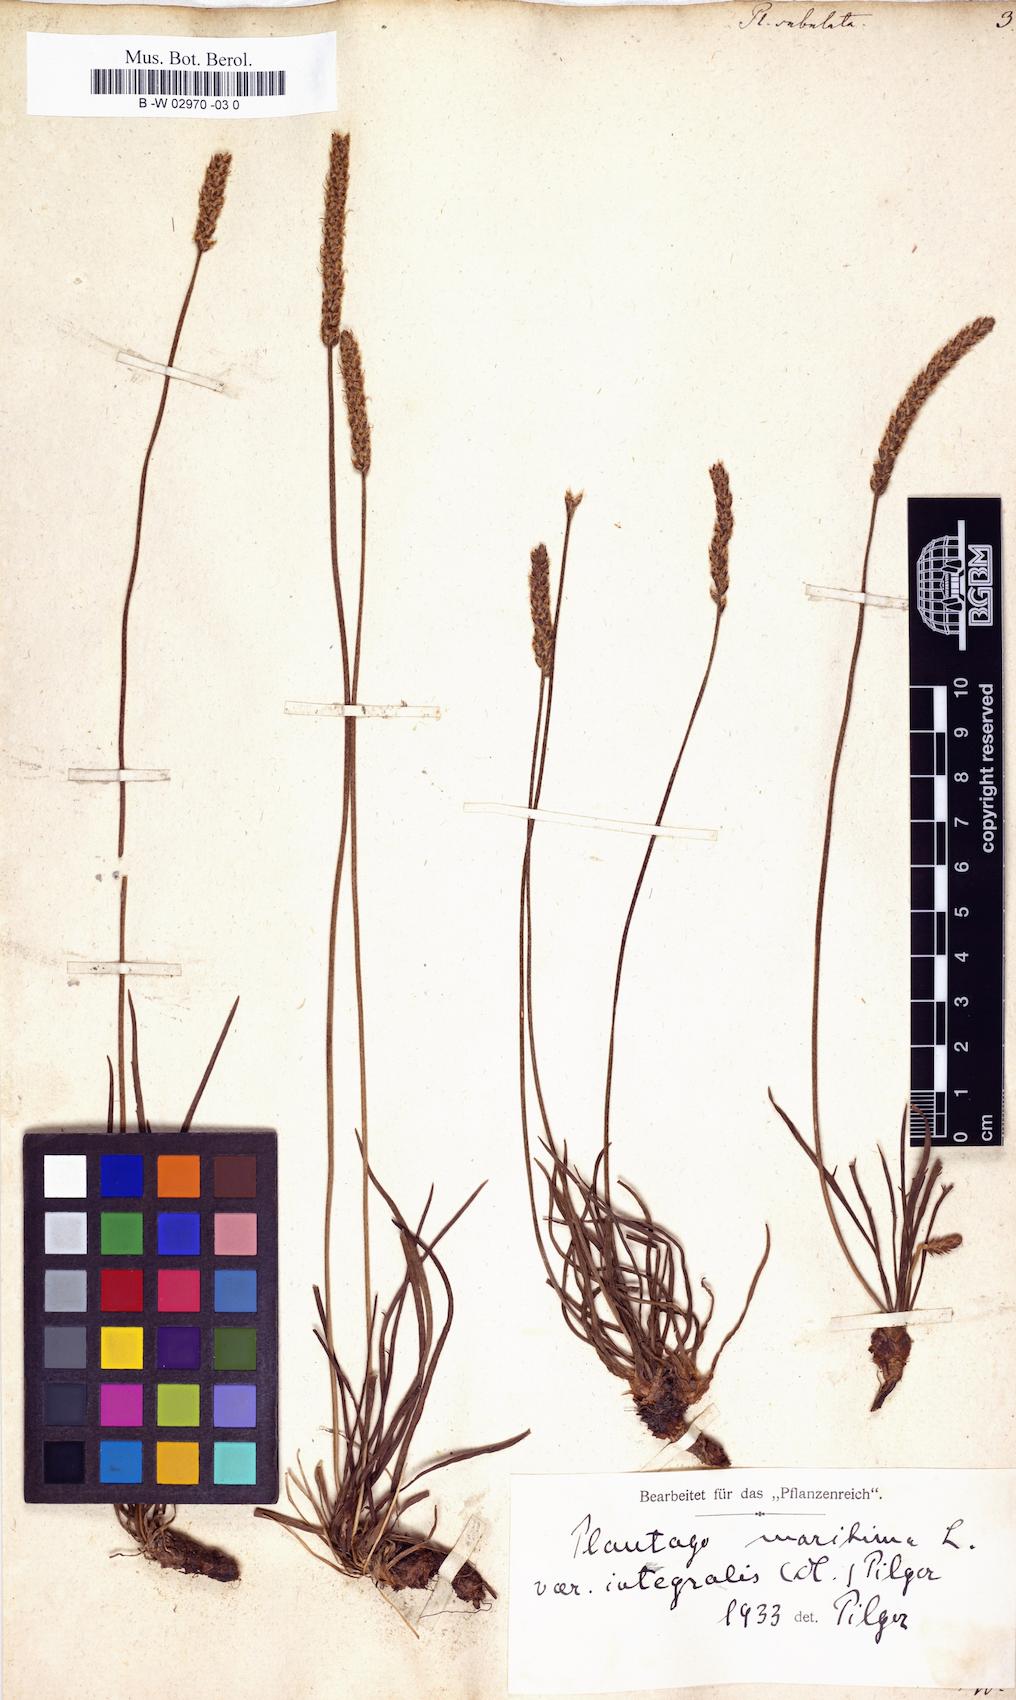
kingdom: Plantae
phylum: Tracheophyta
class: Magnoliopsida
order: Lamiales
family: Plantaginaceae
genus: Plantago
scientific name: Plantago subulata
